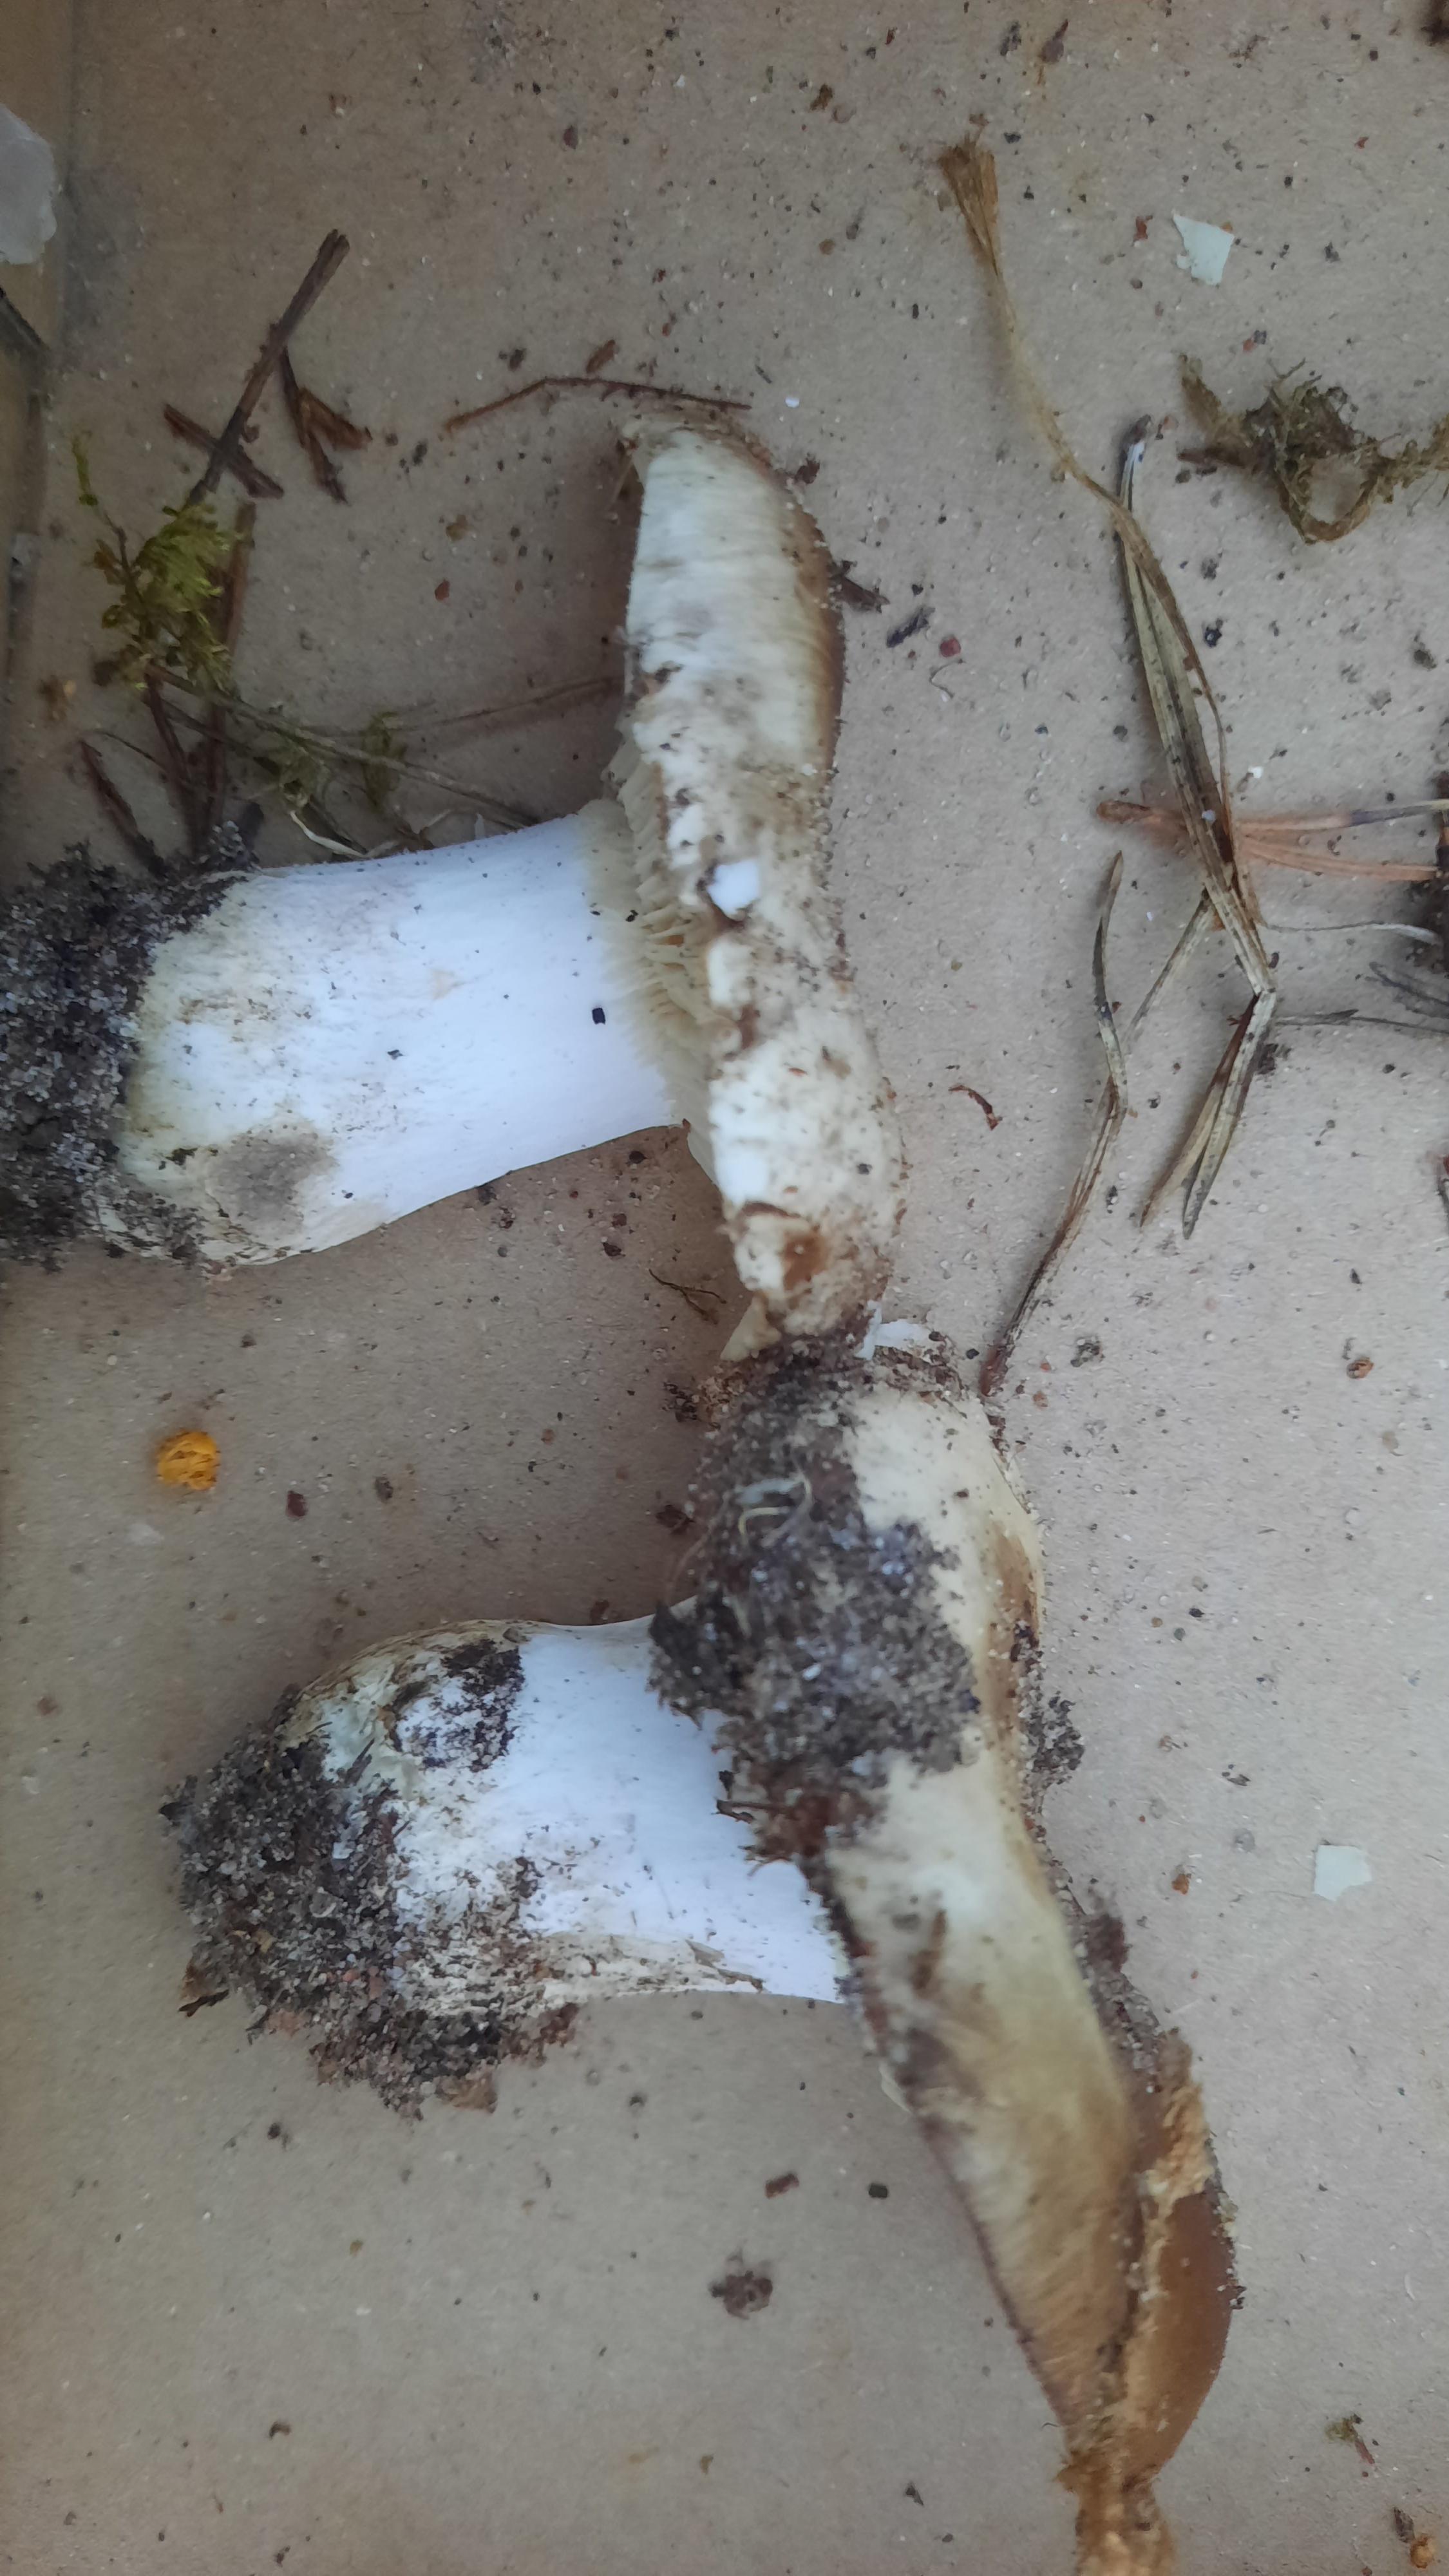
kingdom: Fungi
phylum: Basidiomycota
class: Agaricomycetes
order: Russulales
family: Russulaceae
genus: Russula
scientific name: Russula adusta
